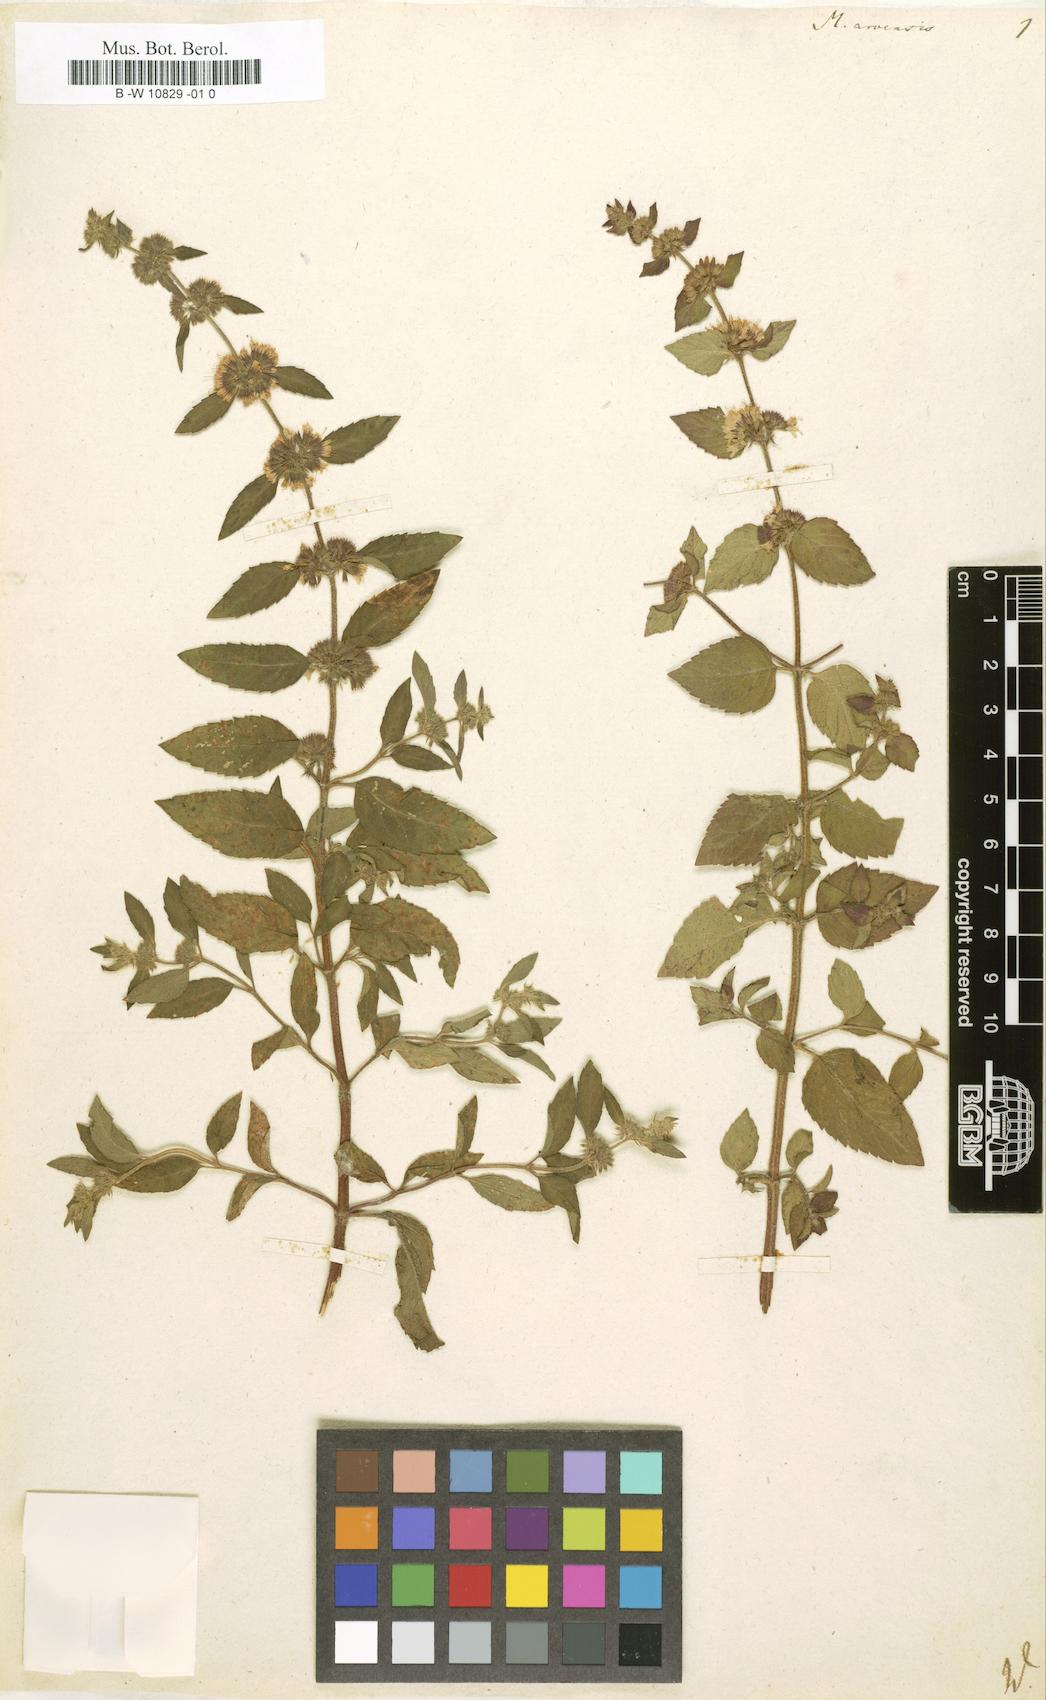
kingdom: Plantae
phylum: Tracheophyta
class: Magnoliopsida
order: Lamiales
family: Lamiaceae
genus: Mentha
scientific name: Mentha arvensis
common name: Corn mint
